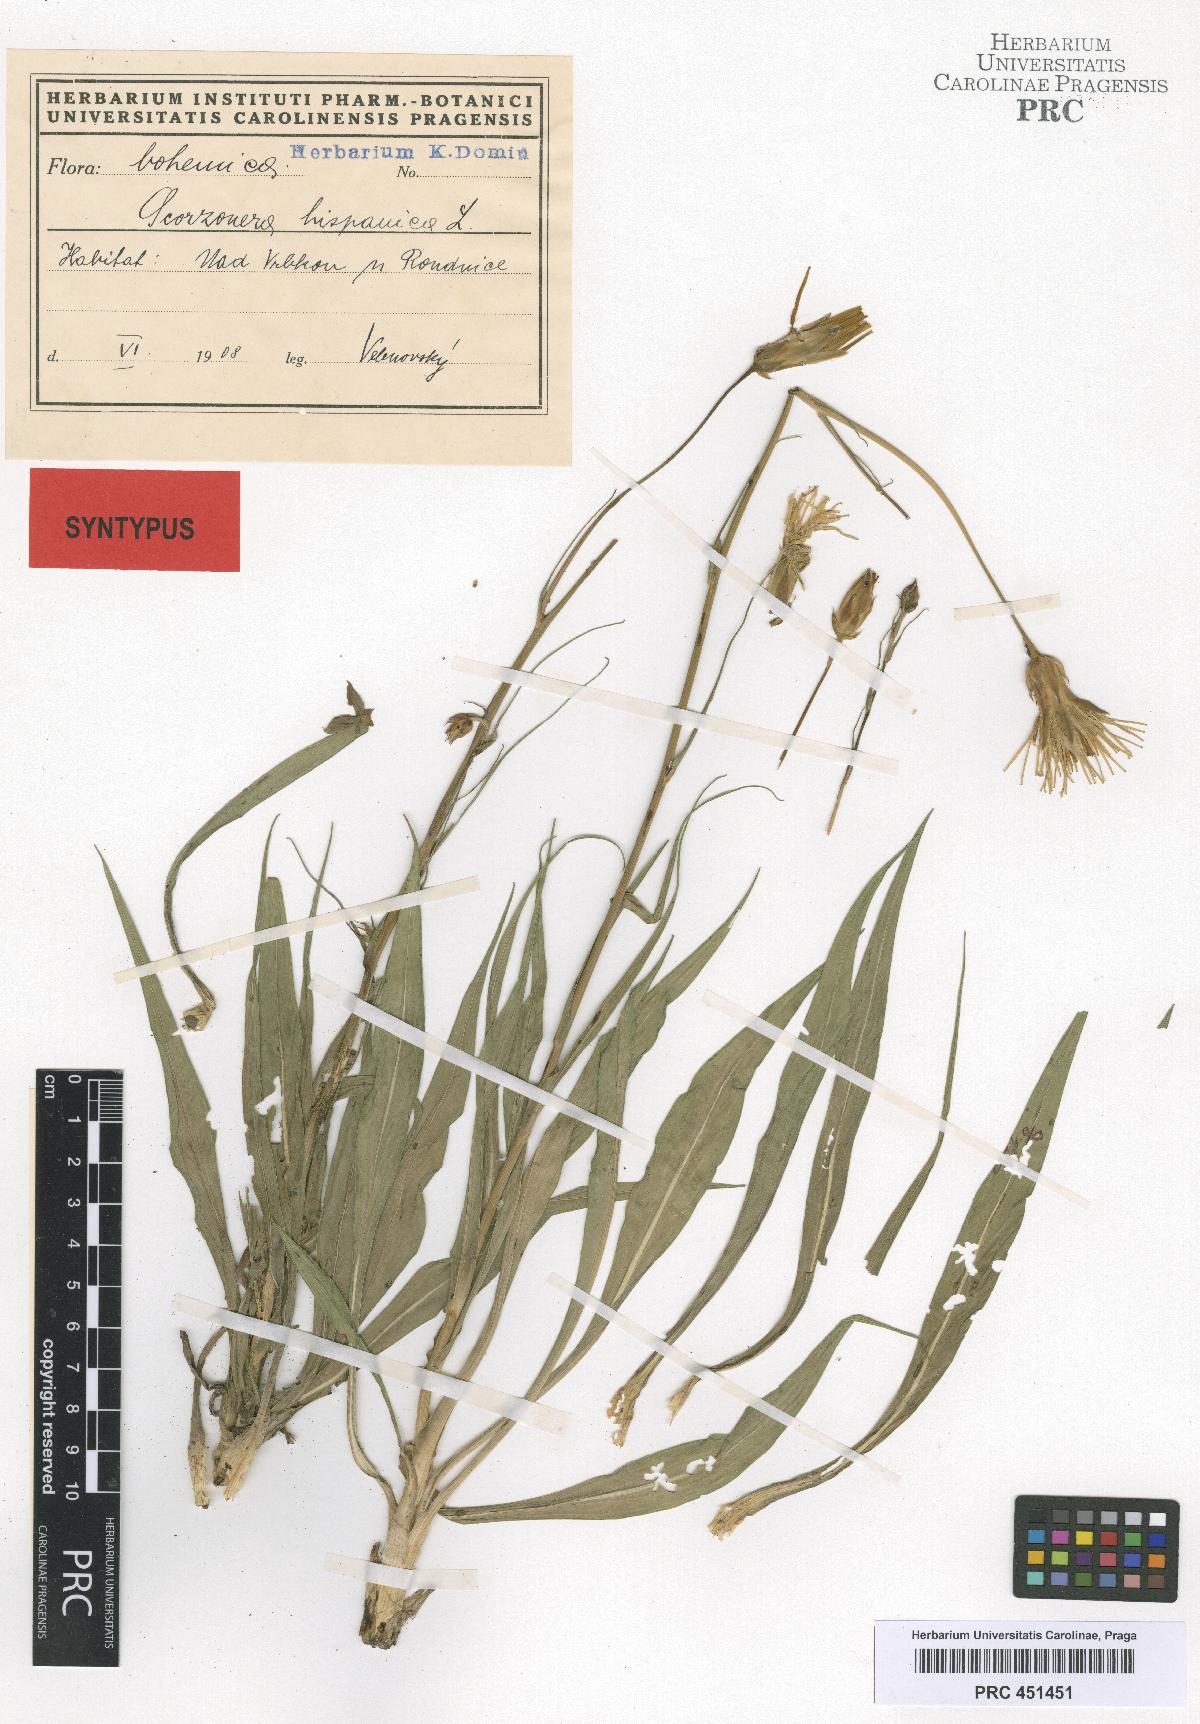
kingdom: Plantae
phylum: Tracheophyta
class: Magnoliopsida
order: Asterales
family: Asteraceae
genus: Pseudopodospermum
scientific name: Pseudopodospermum hispanicum
